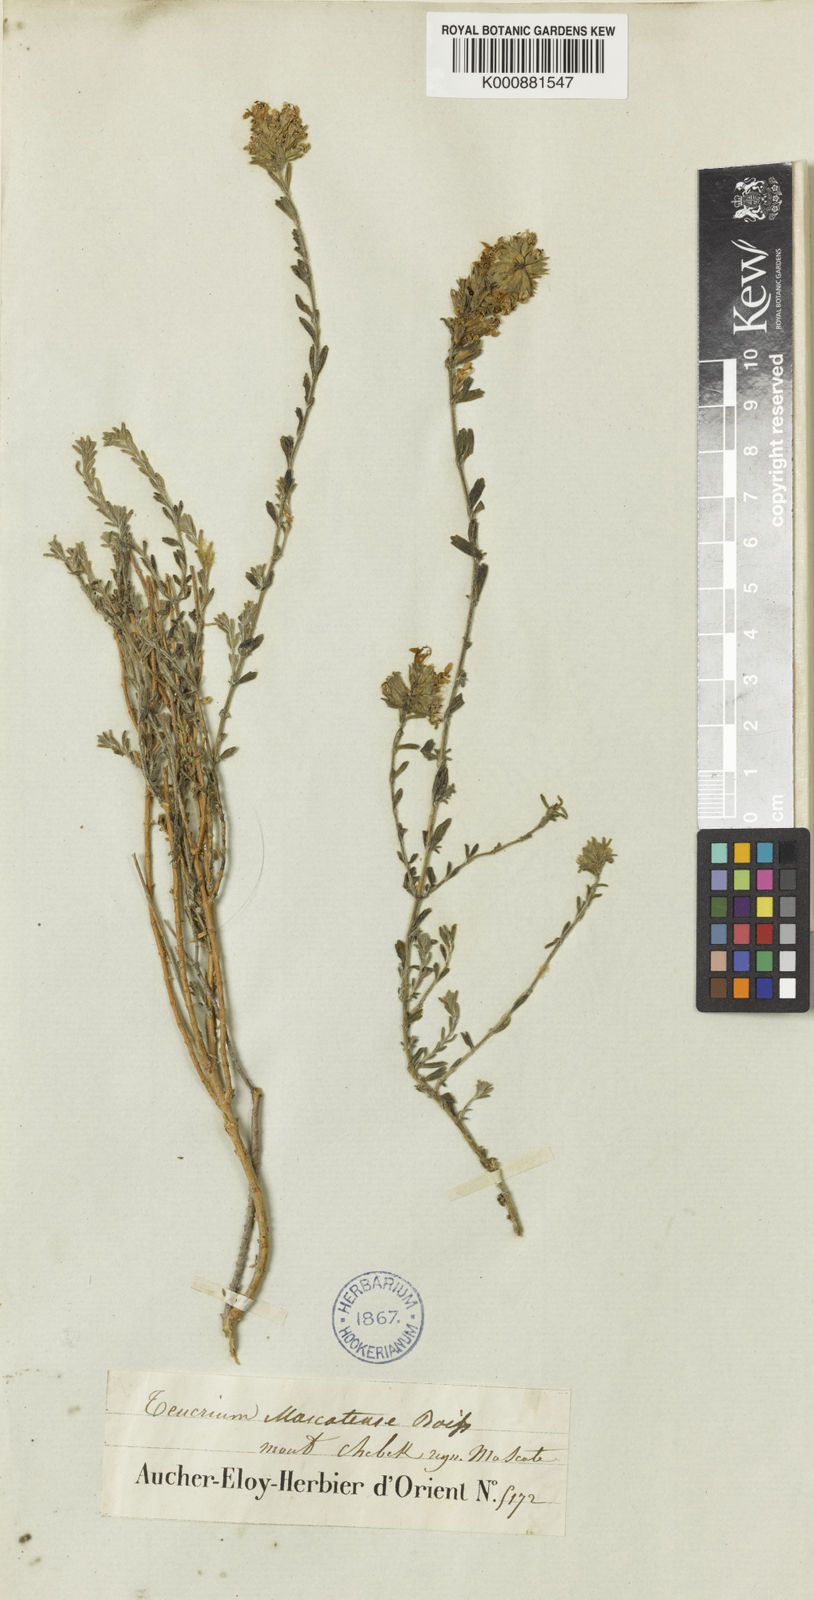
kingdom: Plantae
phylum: Tracheophyta
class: Magnoliopsida
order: Lamiales
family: Lamiaceae
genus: Teucrium
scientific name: Teucrium mascatense
